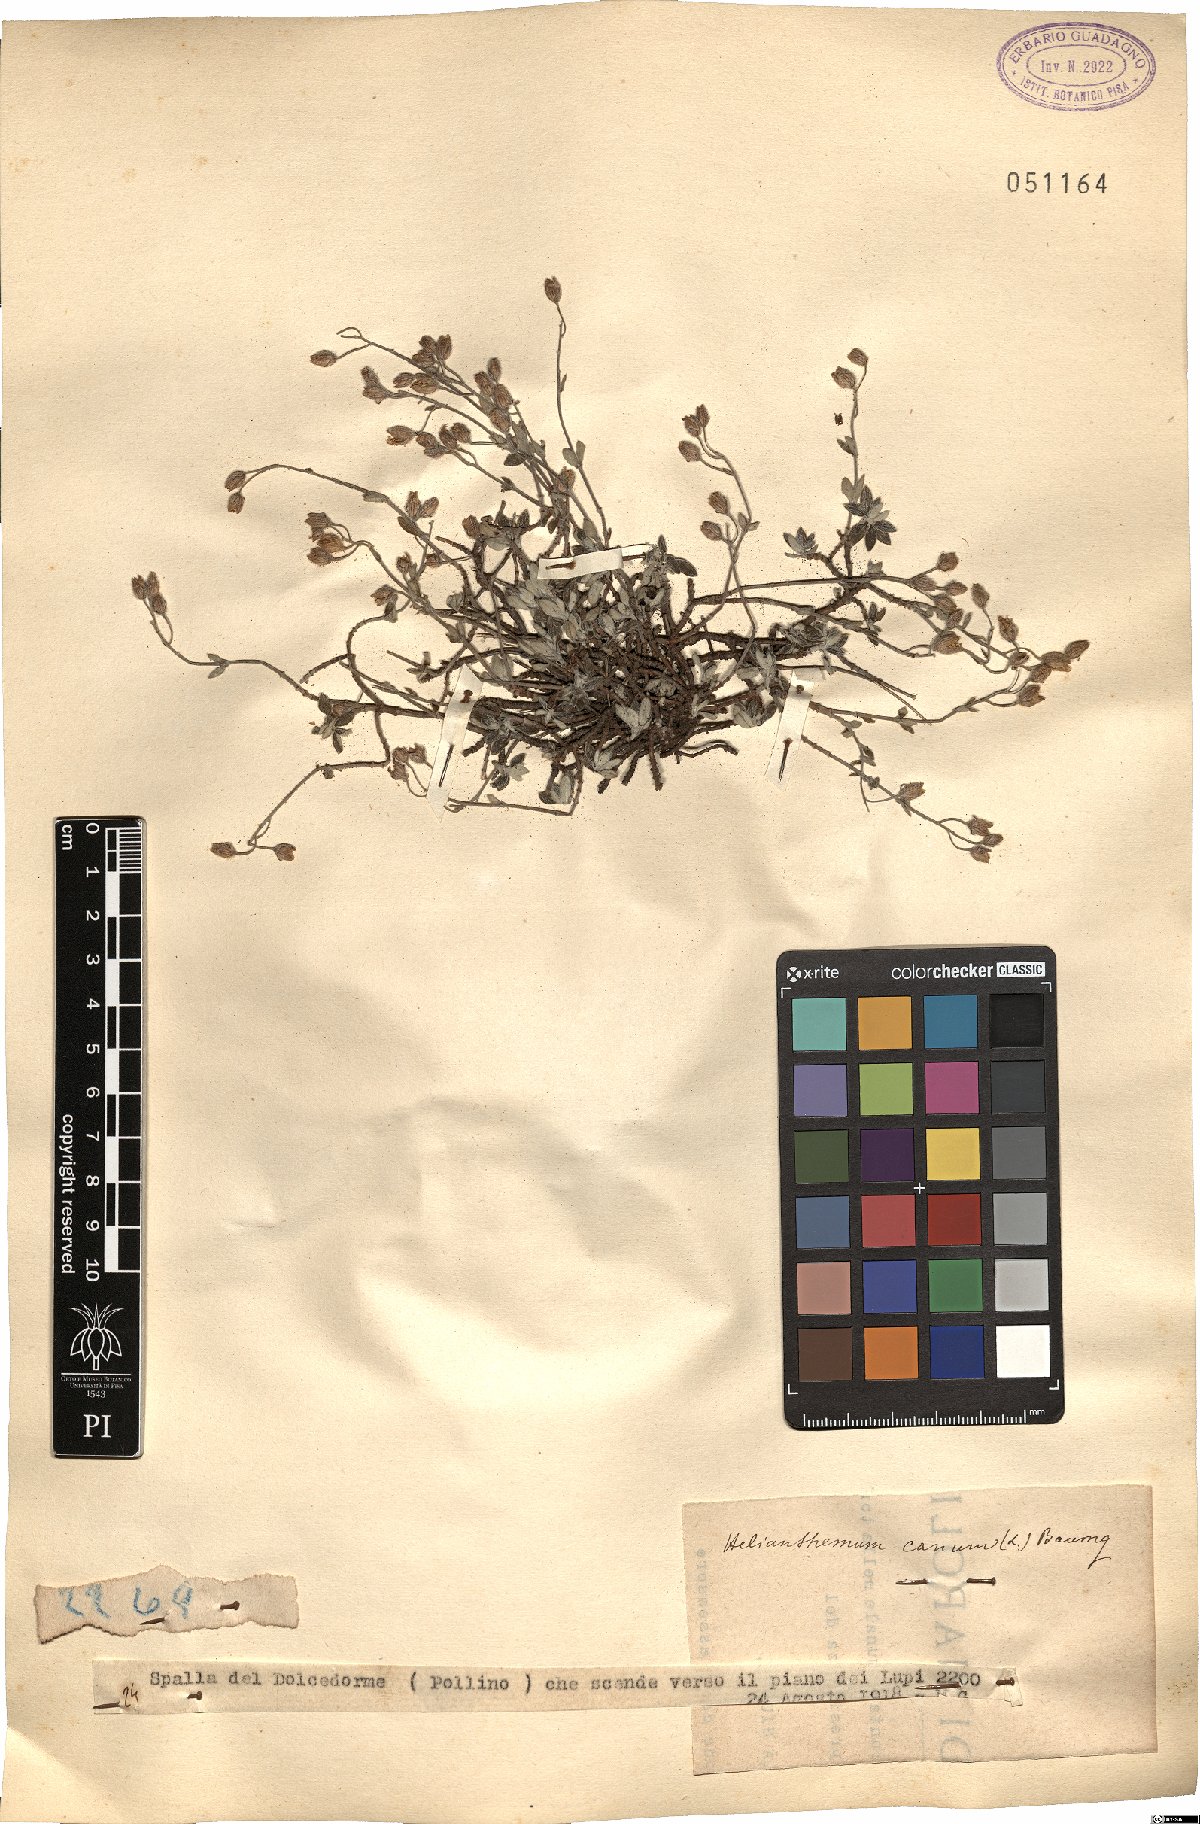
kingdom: Plantae
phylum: Tracheophyta
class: Magnoliopsida
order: Malvales
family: Cistaceae
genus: Helianthemum
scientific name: Helianthemum canum
